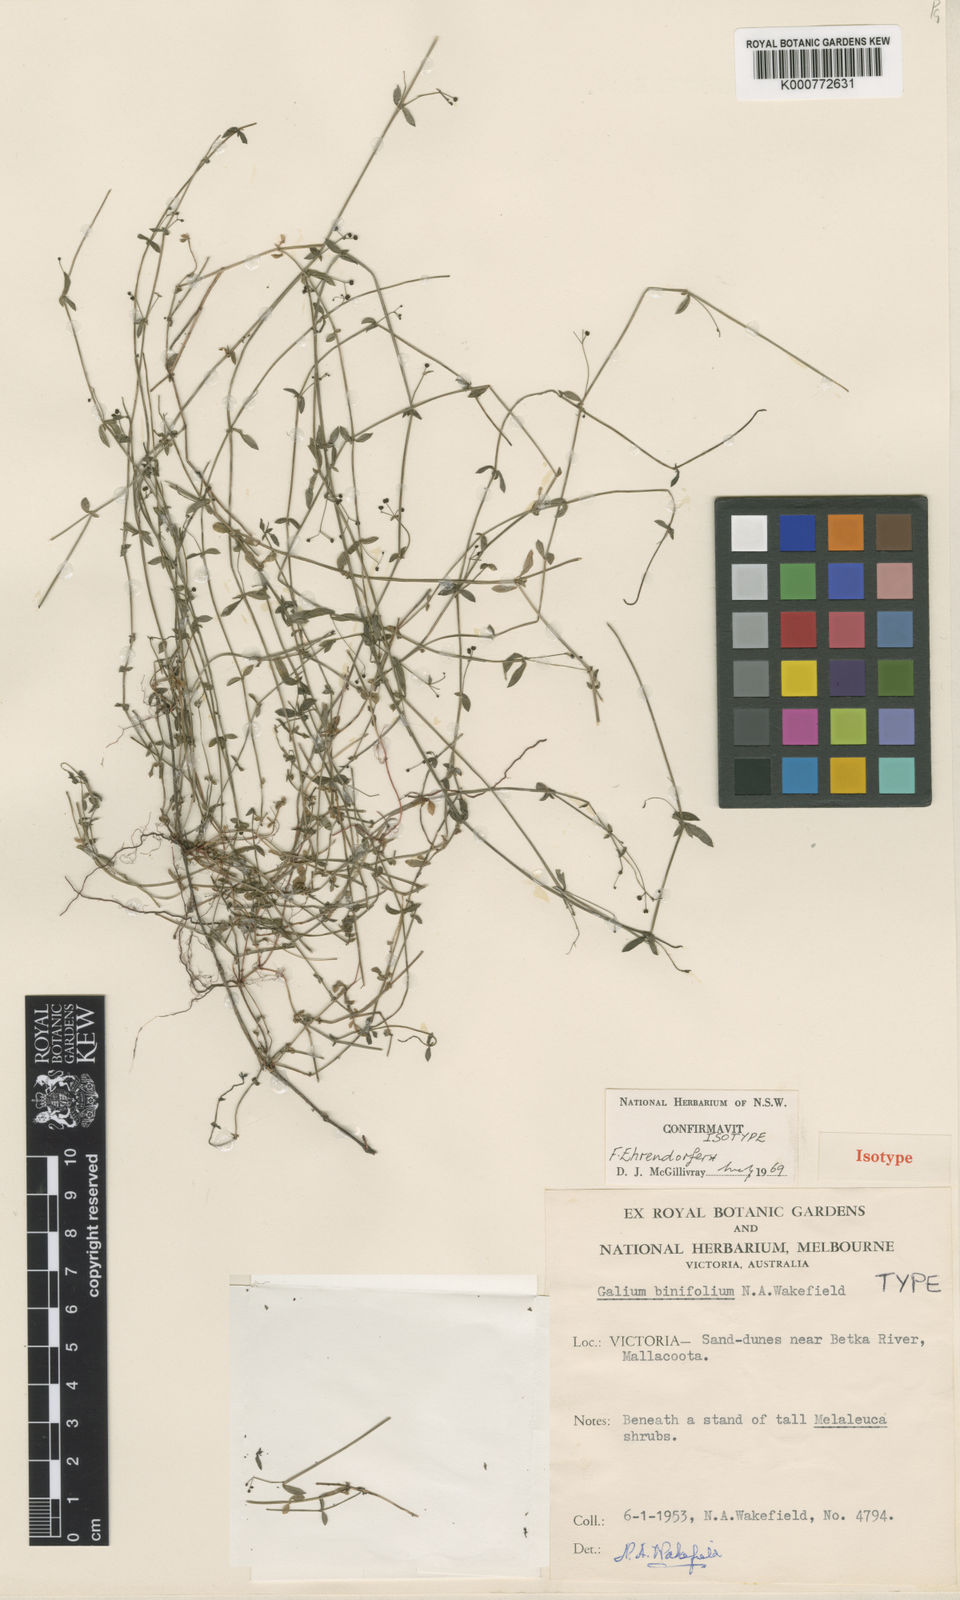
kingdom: Plantae
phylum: Tracheophyta
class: Magnoliopsida
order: Gentianales
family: Rubiaceae
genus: Galium
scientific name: Galium binifolium
